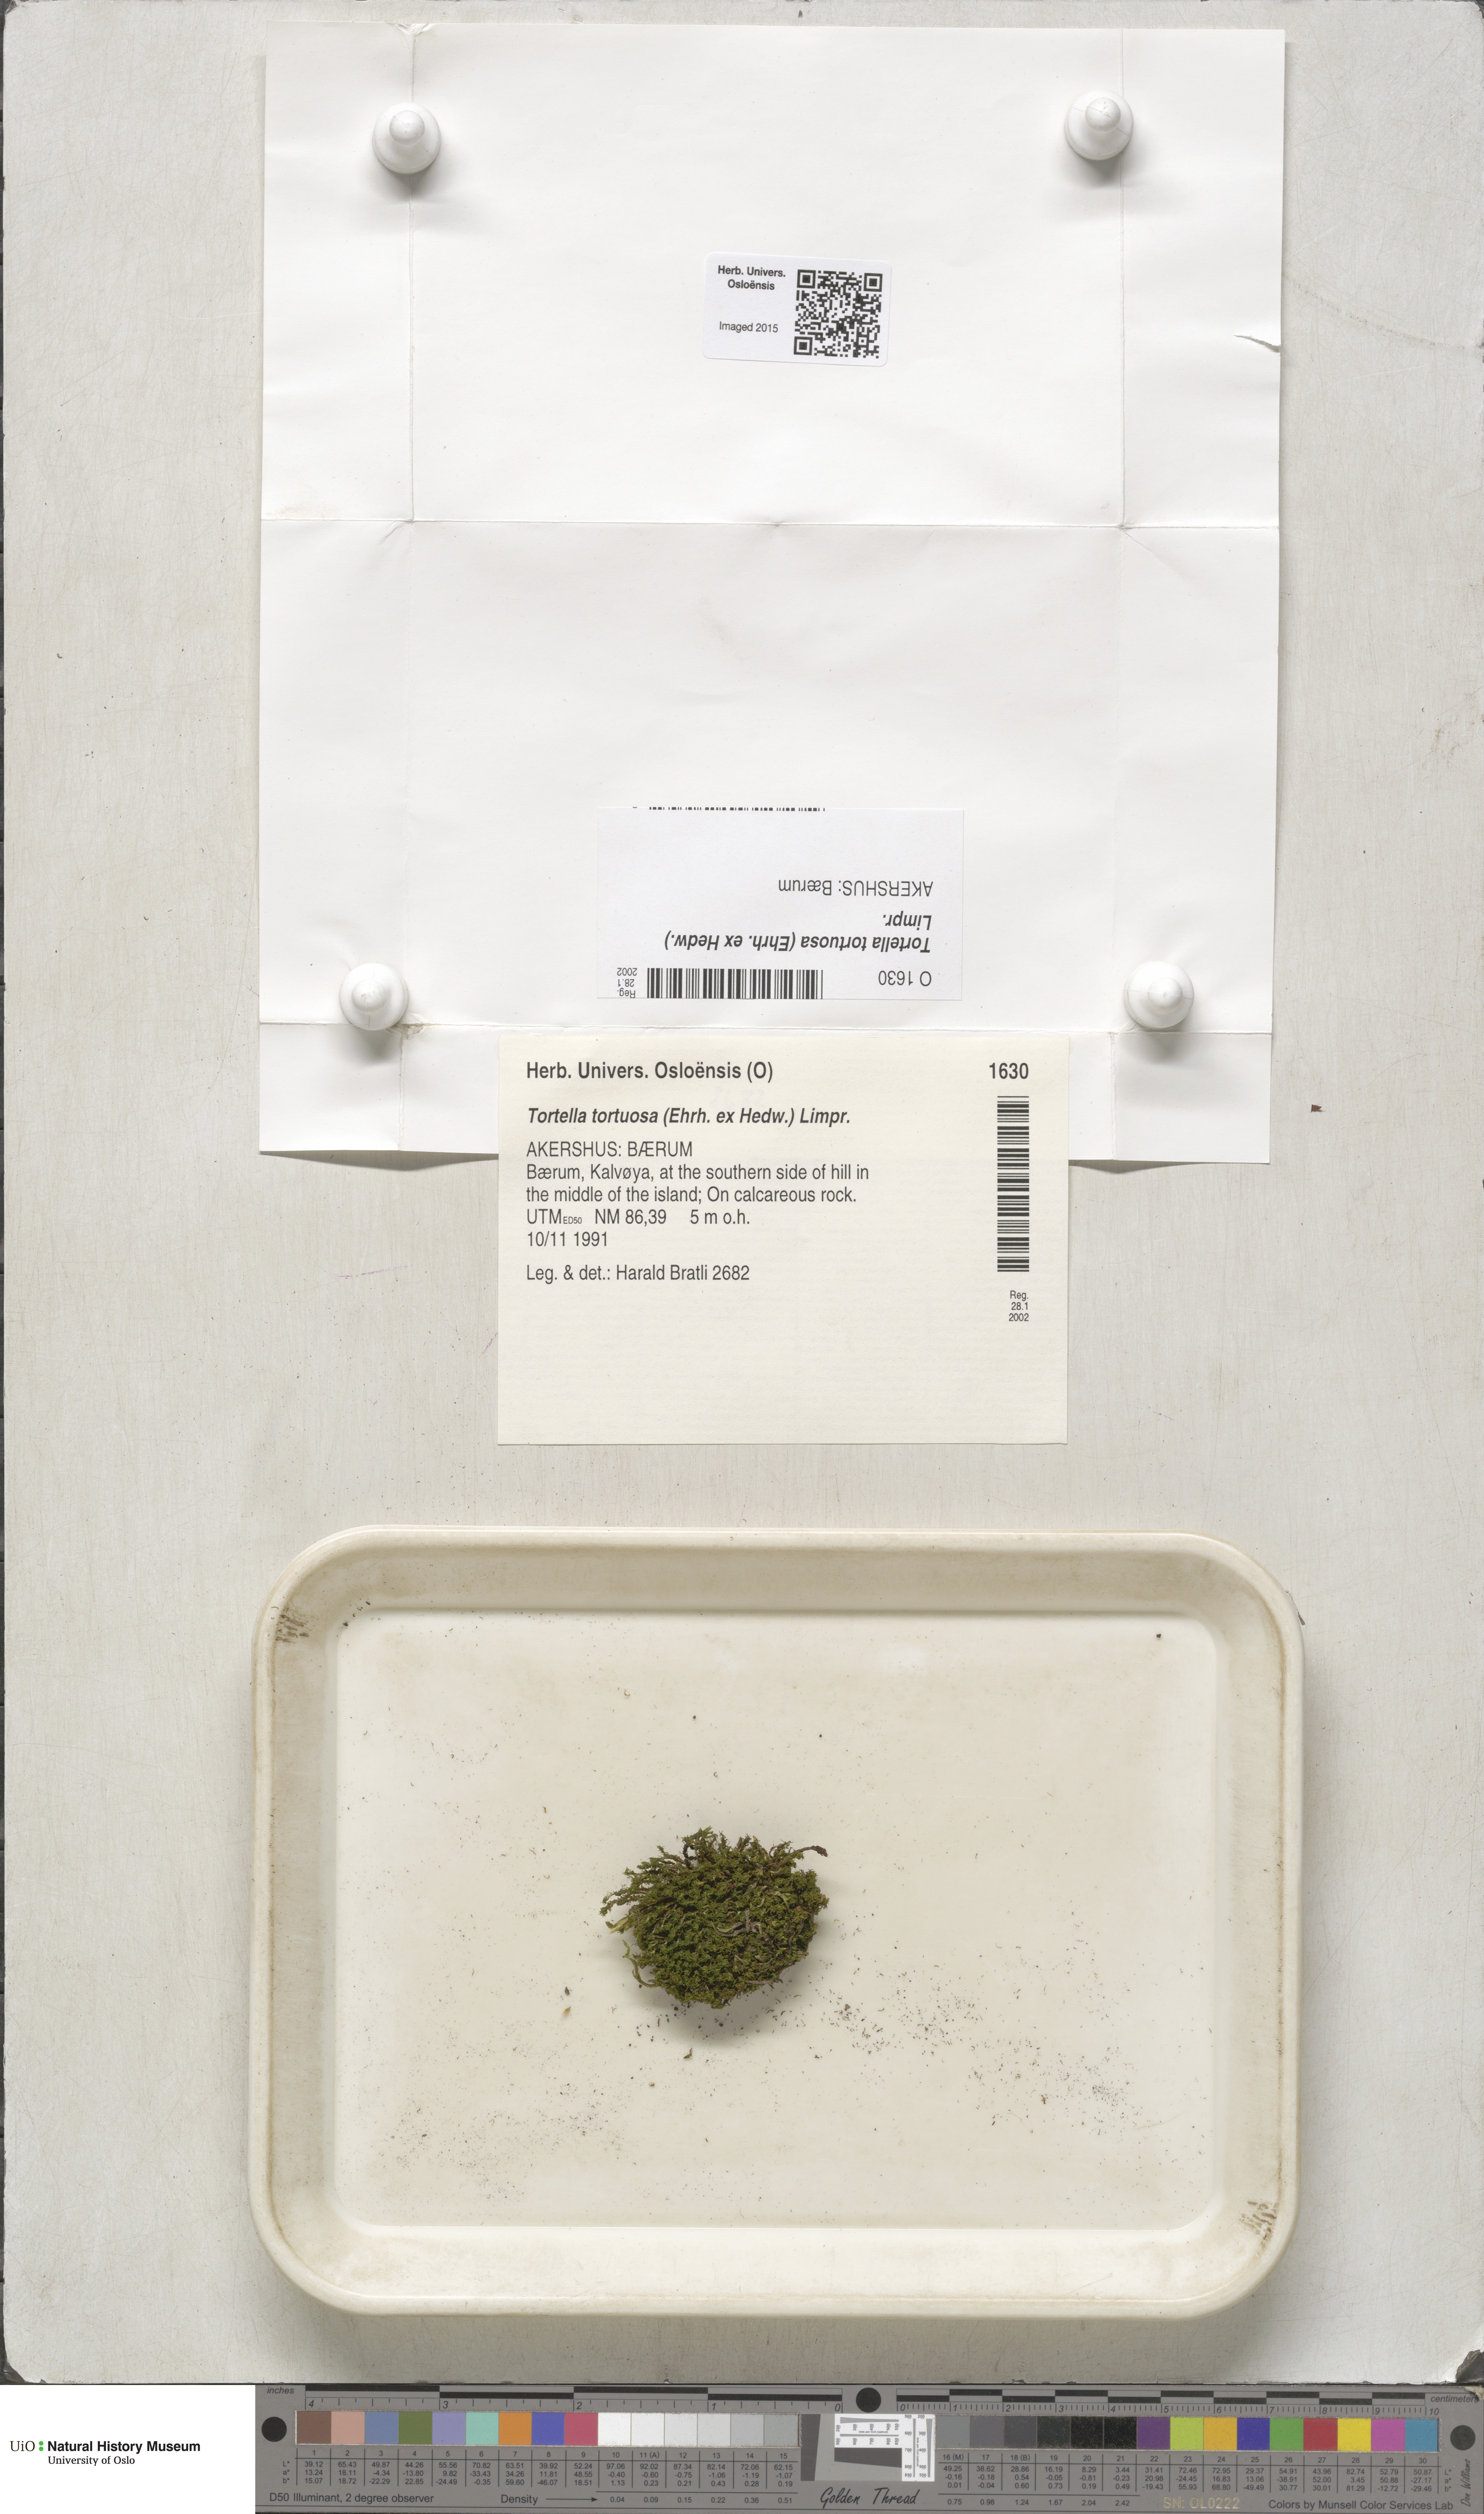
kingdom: Plantae
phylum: Bryophyta
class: Bryopsida
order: Pottiales
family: Pottiaceae
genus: Tortella
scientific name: Tortella tortuosa
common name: Frizzled crisp moss
